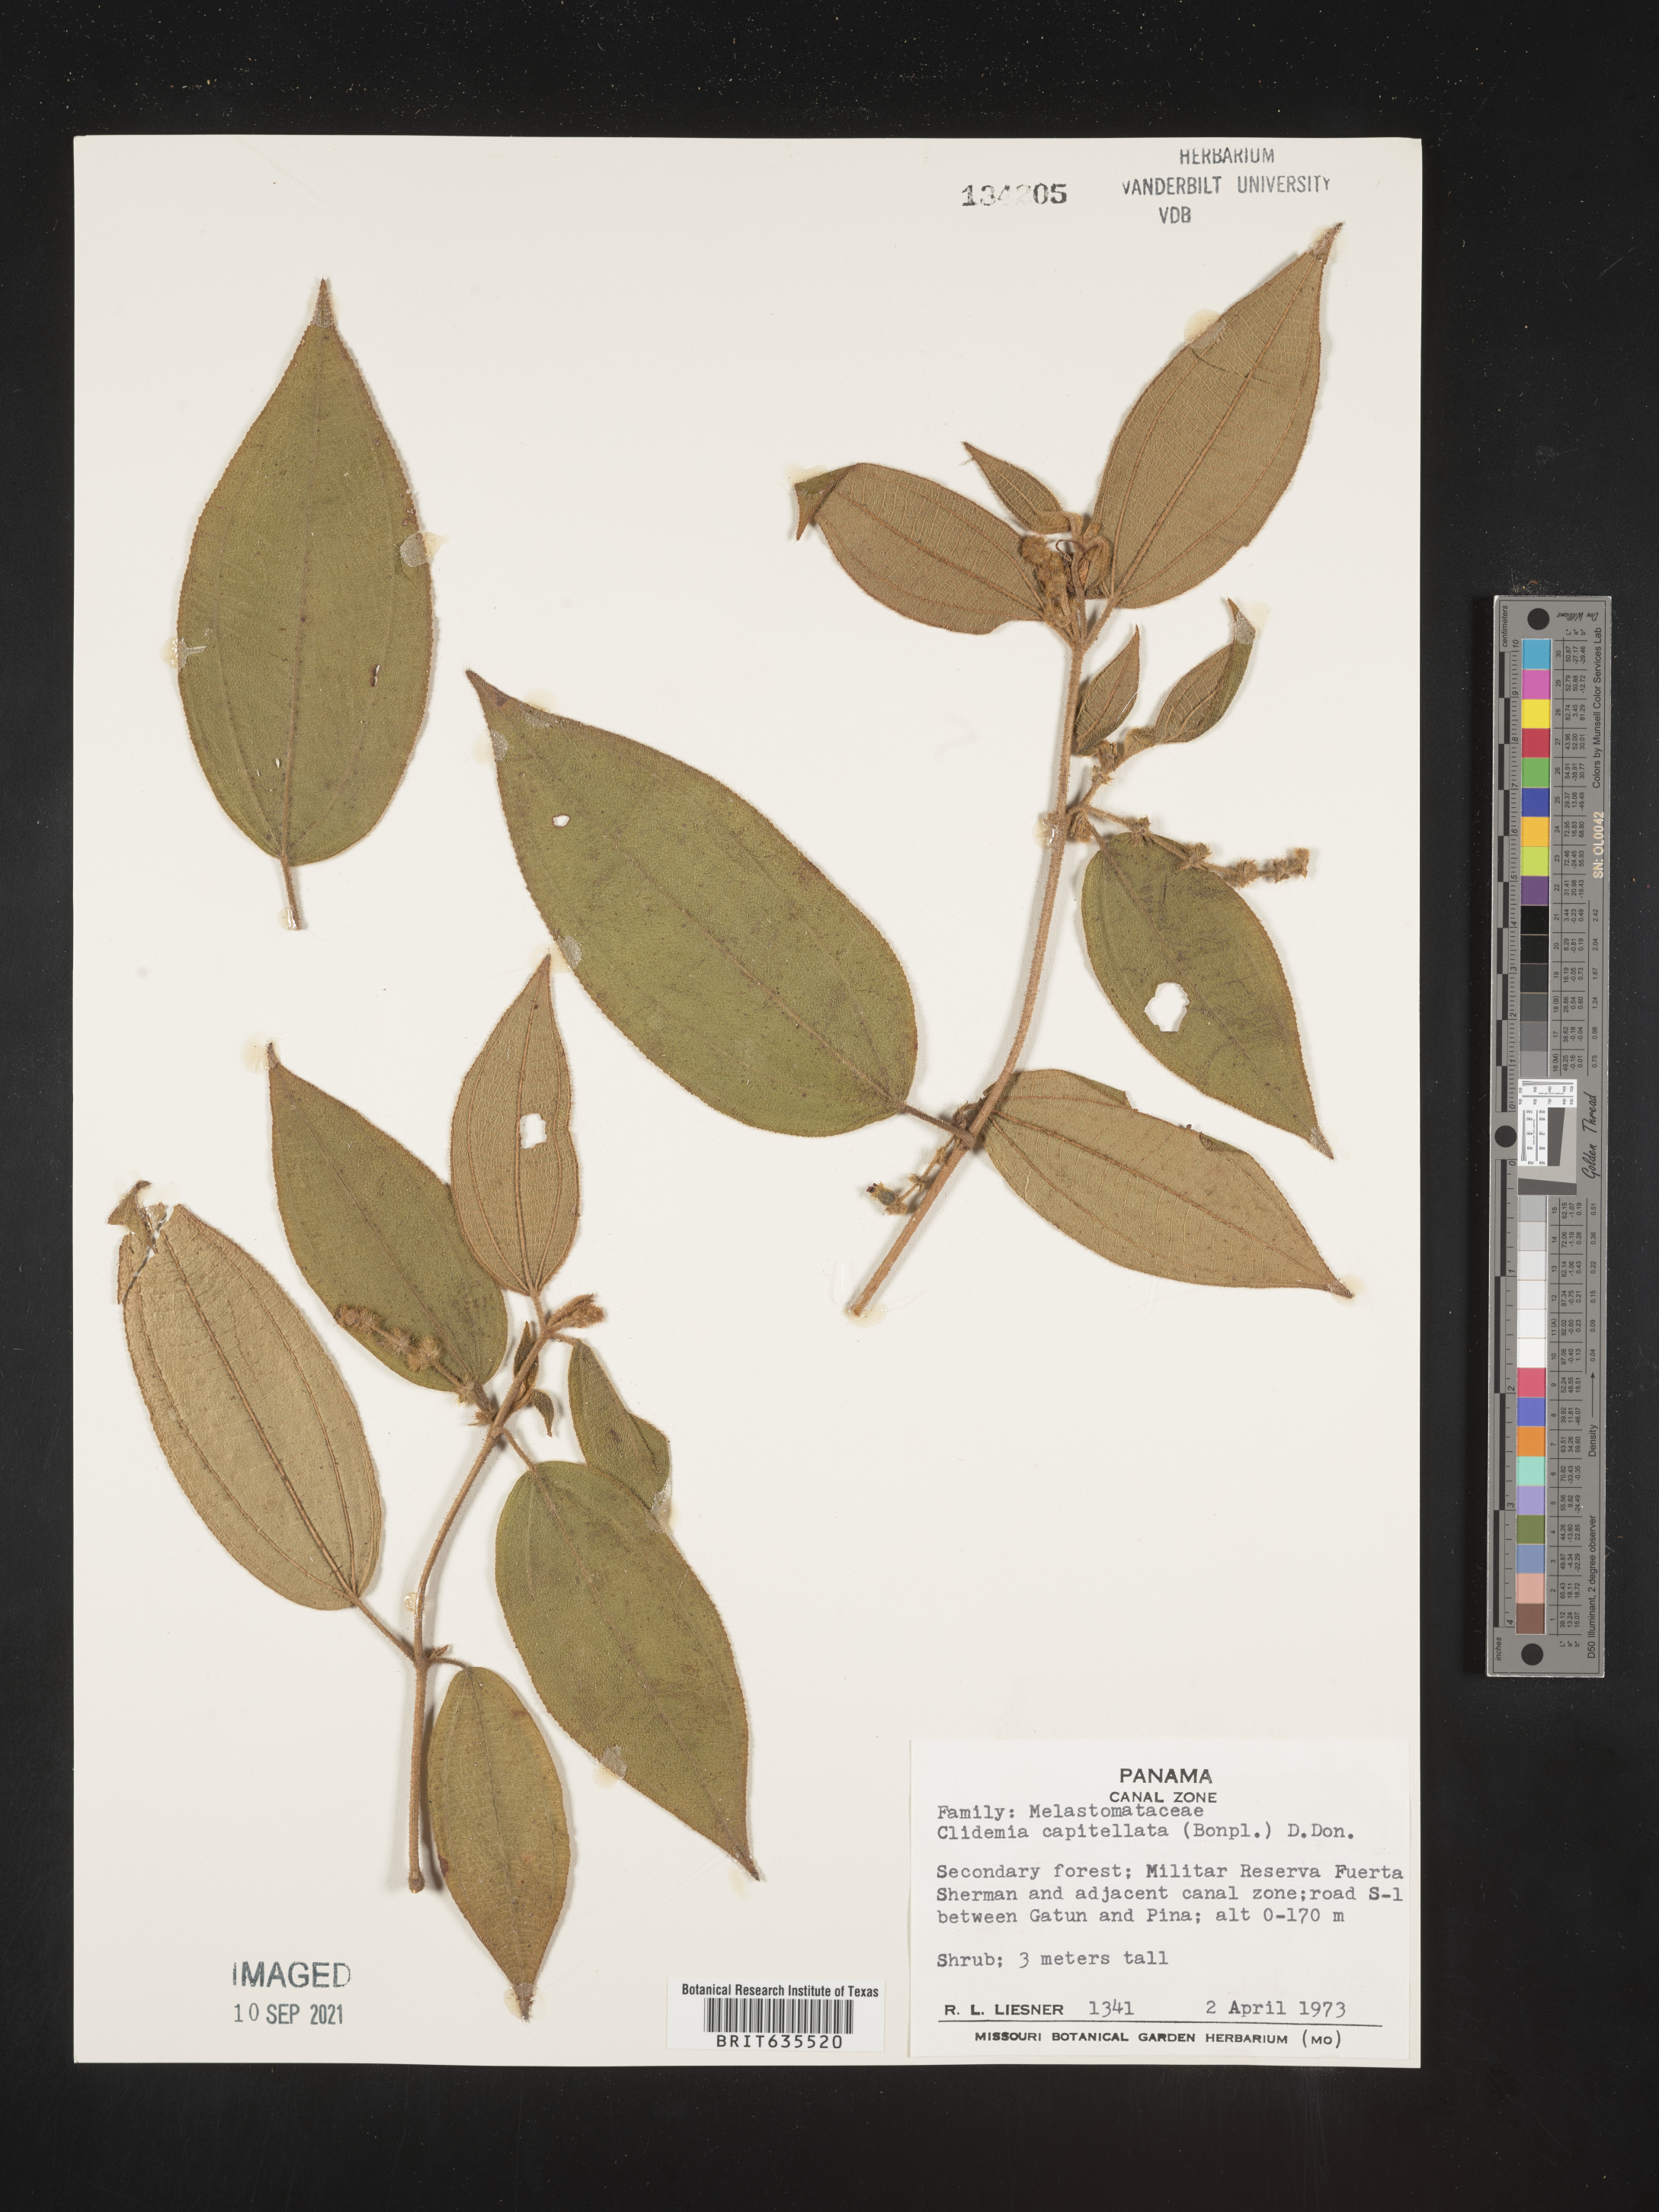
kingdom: Plantae
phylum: Tracheophyta
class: Magnoliopsida
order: Myrtales
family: Melastomataceae
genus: Miconia
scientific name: Miconia
